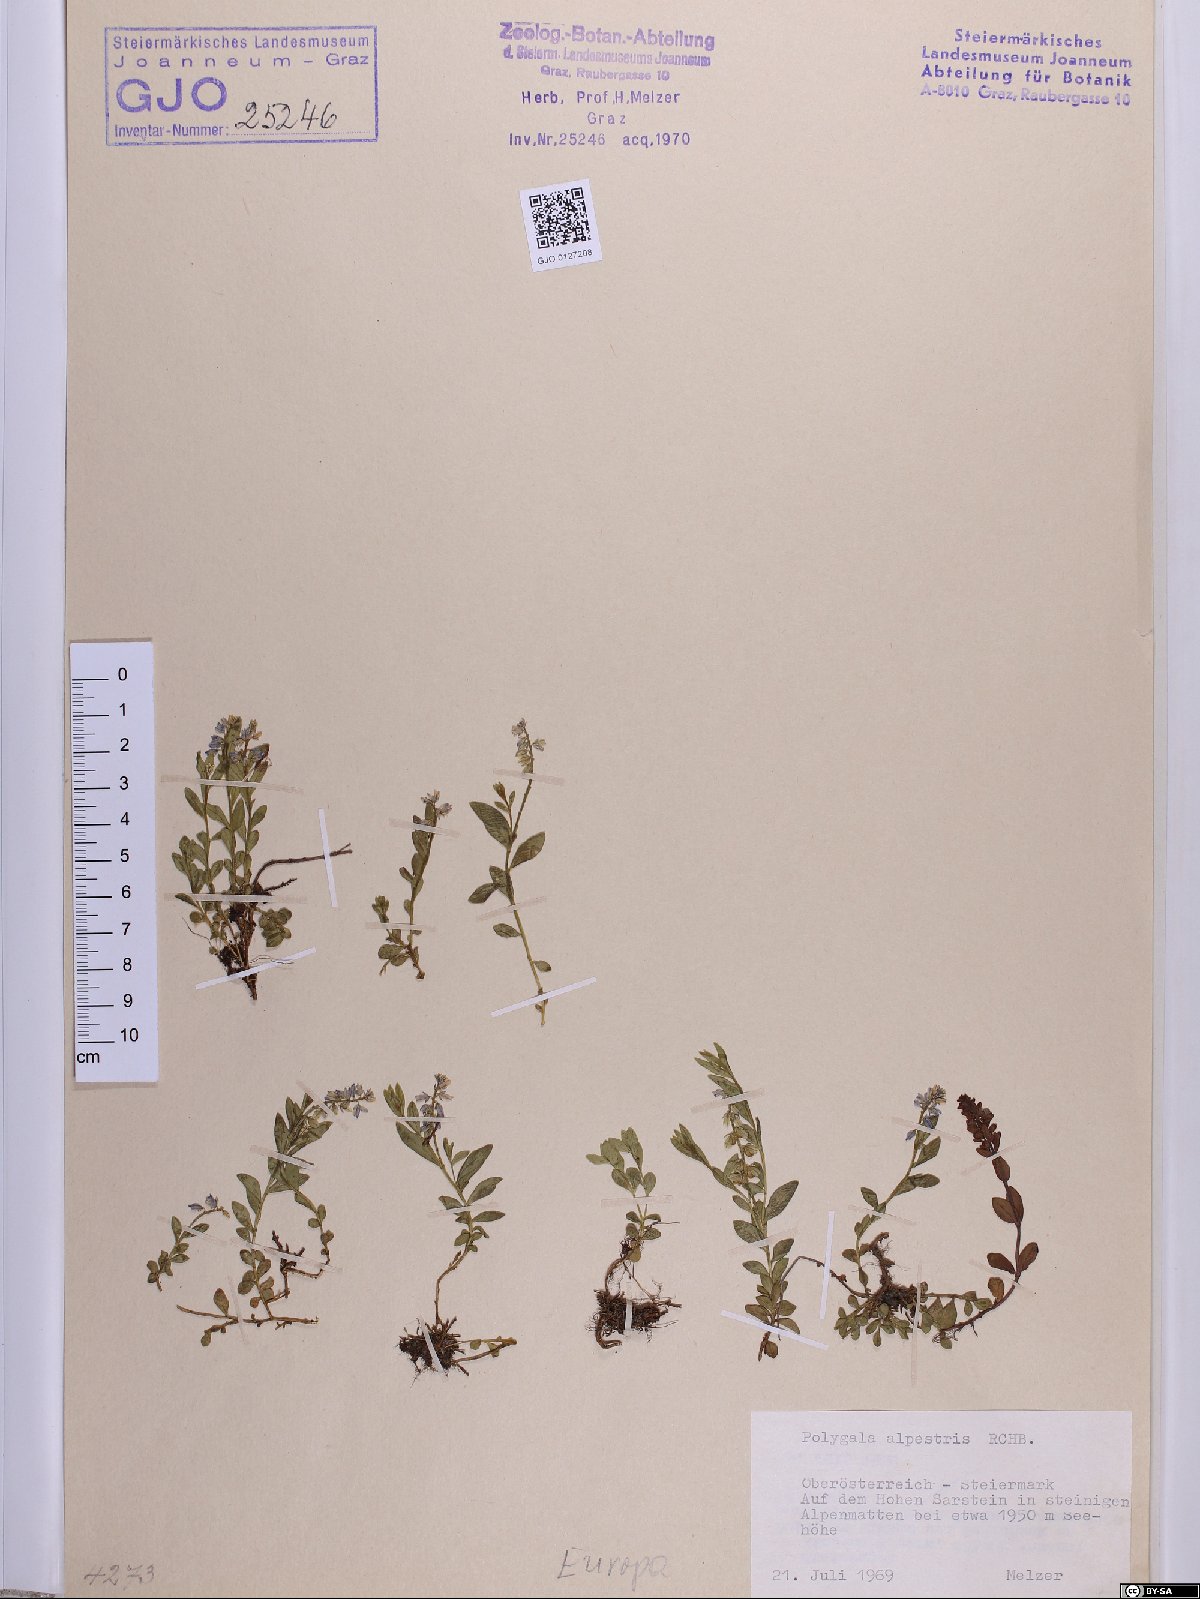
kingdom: Plantae
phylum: Tracheophyta
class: Magnoliopsida
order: Fabales
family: Polygalaceae
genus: Polygala
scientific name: Polygala alpestris
